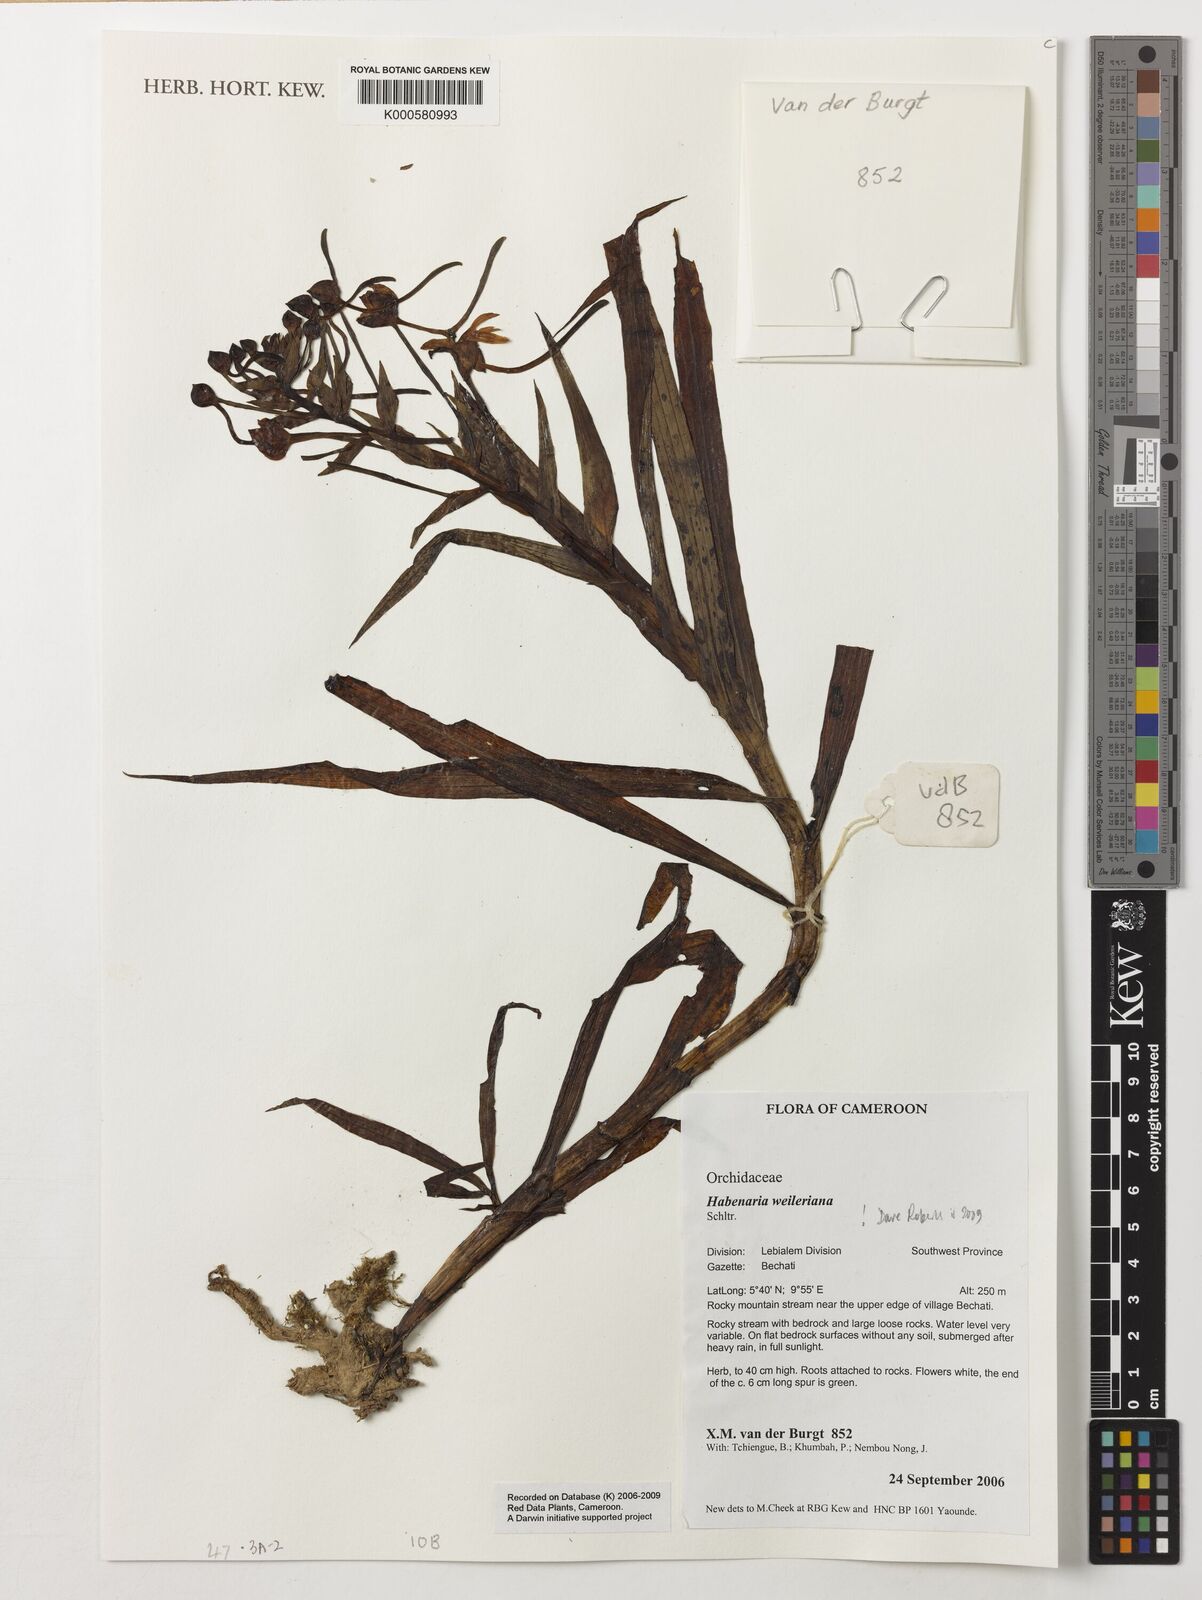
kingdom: Plantae
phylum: Tracheophyta
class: Liliopsida
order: Asparagales
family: Orchidaceae
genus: Habenaria
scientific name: Habenaria weileriana
